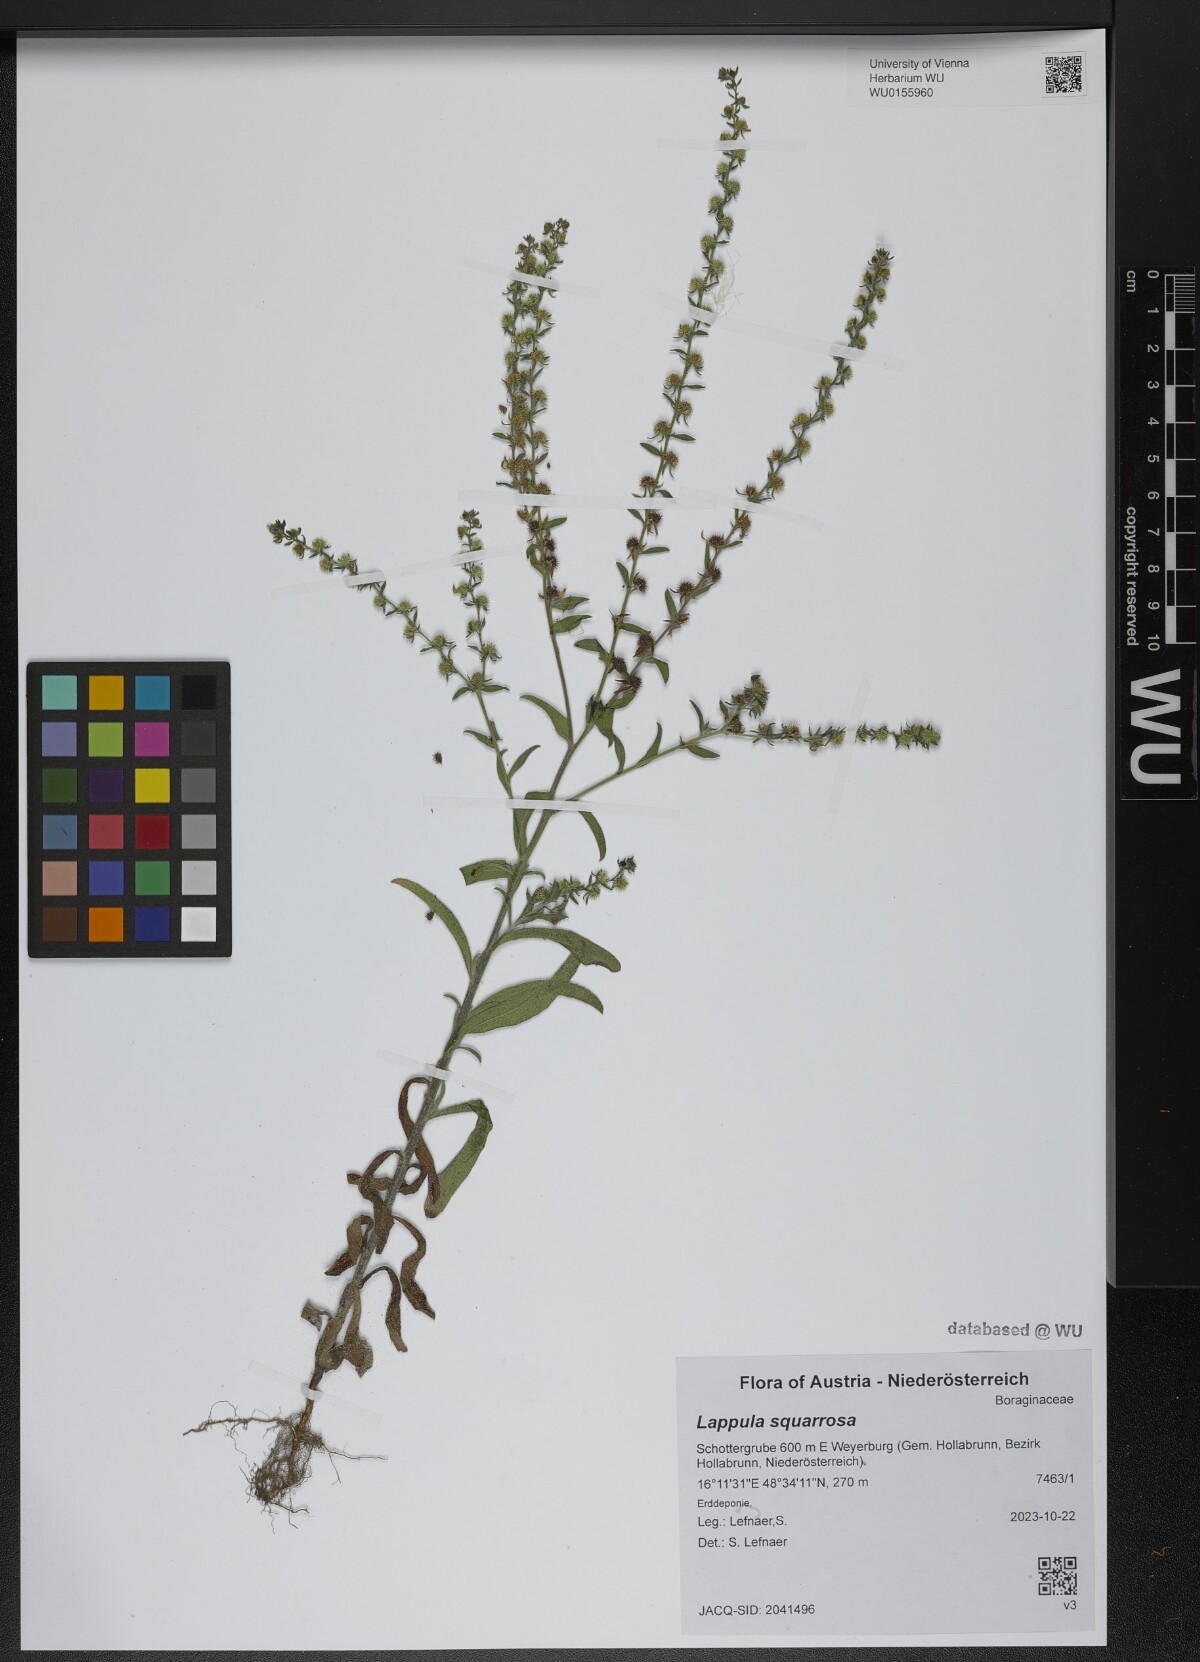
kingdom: Plantae
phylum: Tracheophyta
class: Magnoliopsida
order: Boraginales
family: Boraginaceae
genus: Lappula
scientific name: Lappula squarrosa
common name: European stickseed
